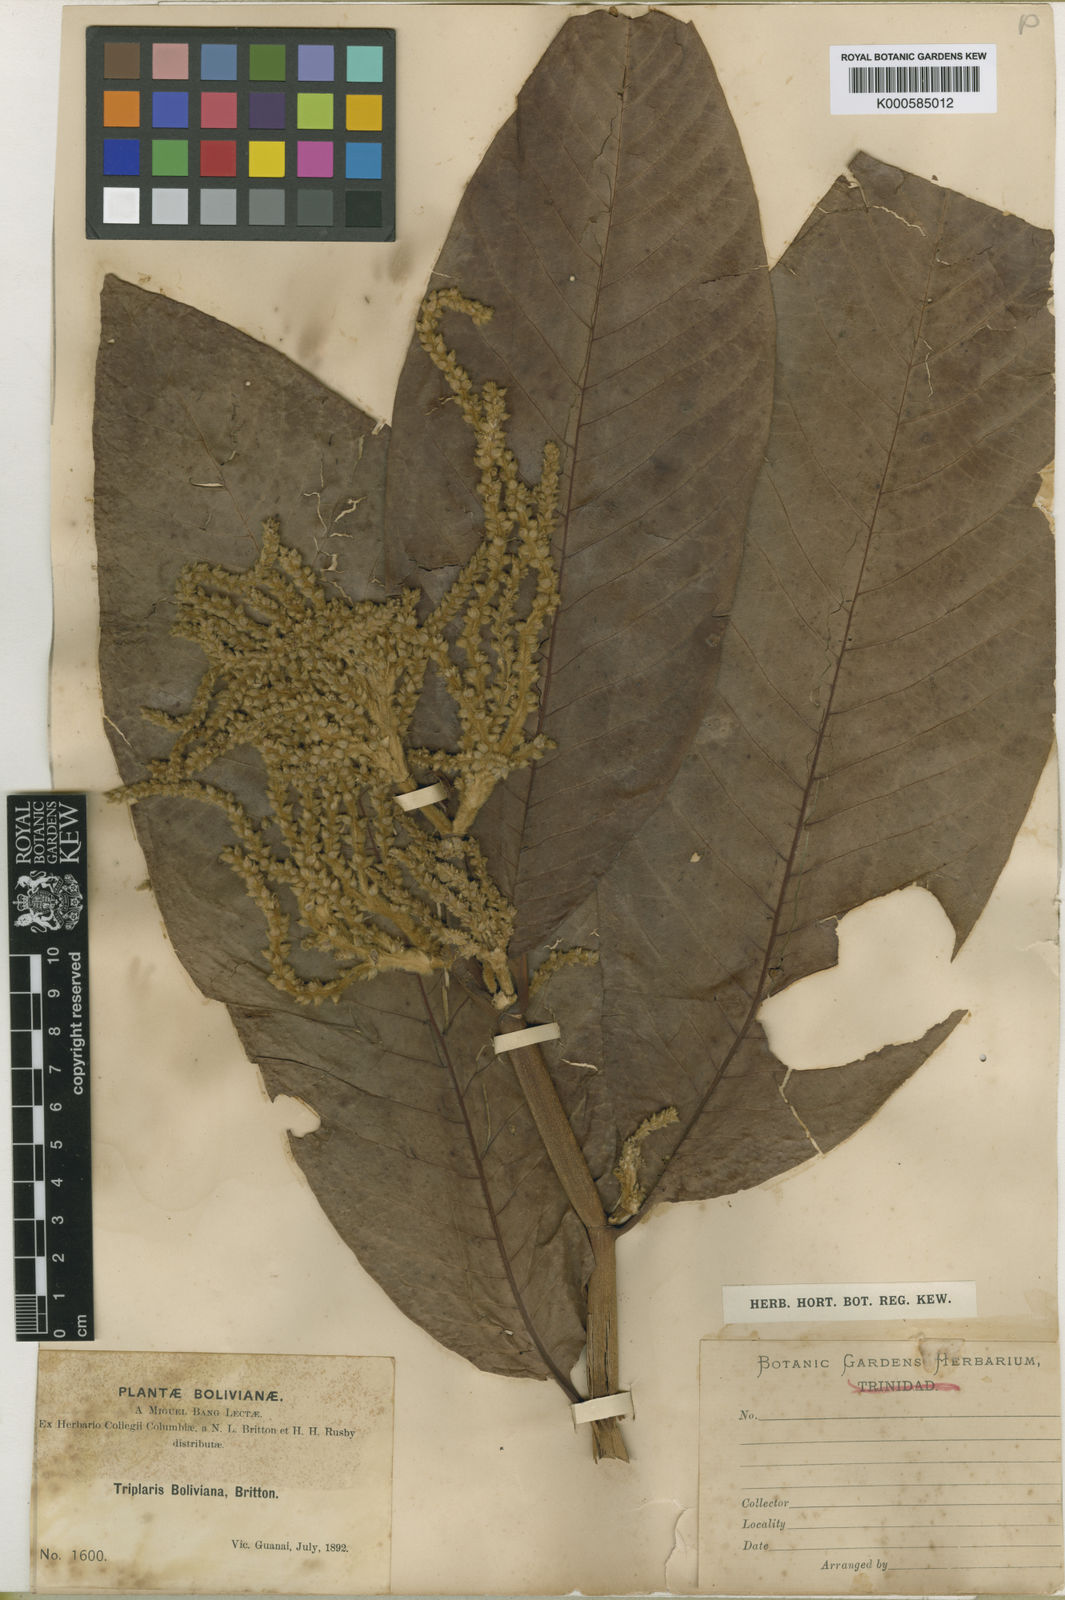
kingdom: Plantae
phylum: Tracheophyta
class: Magnoliopsida
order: Caryophyllales
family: Polygonaceae
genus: Triplaris
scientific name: Triplaris americana
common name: Ant-tree
